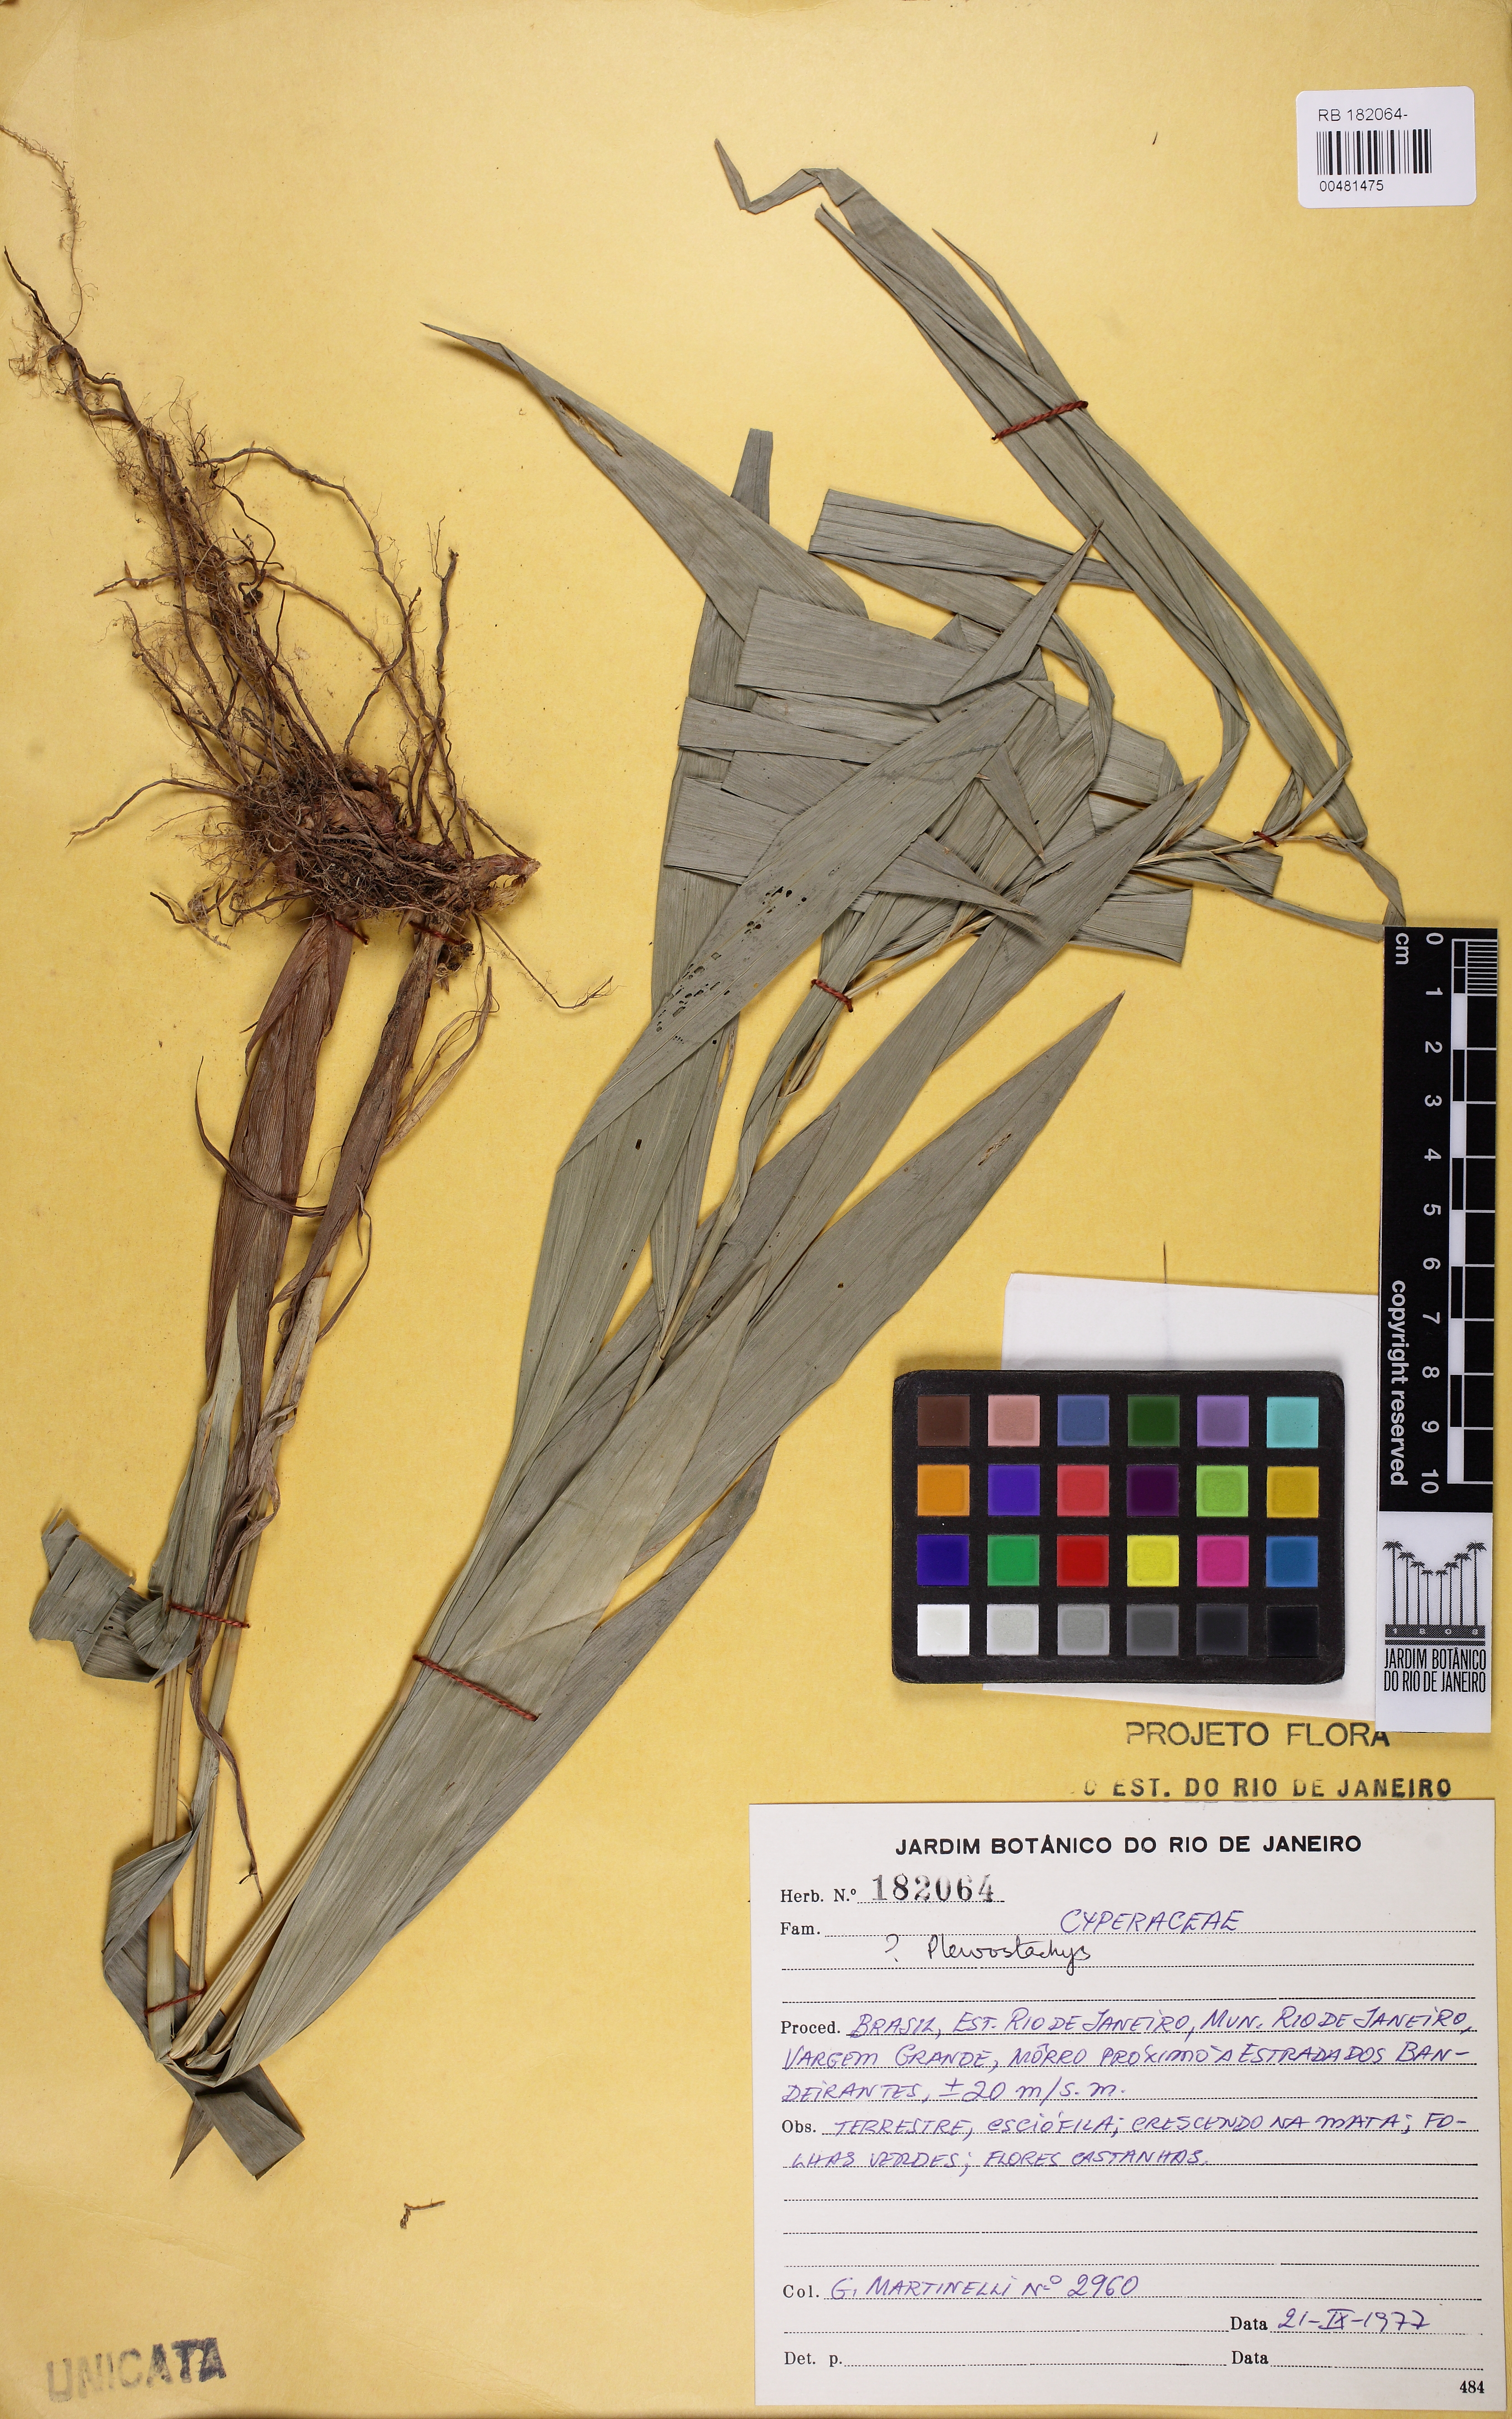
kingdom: Plantae
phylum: Tracheophyta
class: Liliopsida
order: Poales
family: Cyperaceae
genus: Rhynchospora
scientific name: Rhynchospora
